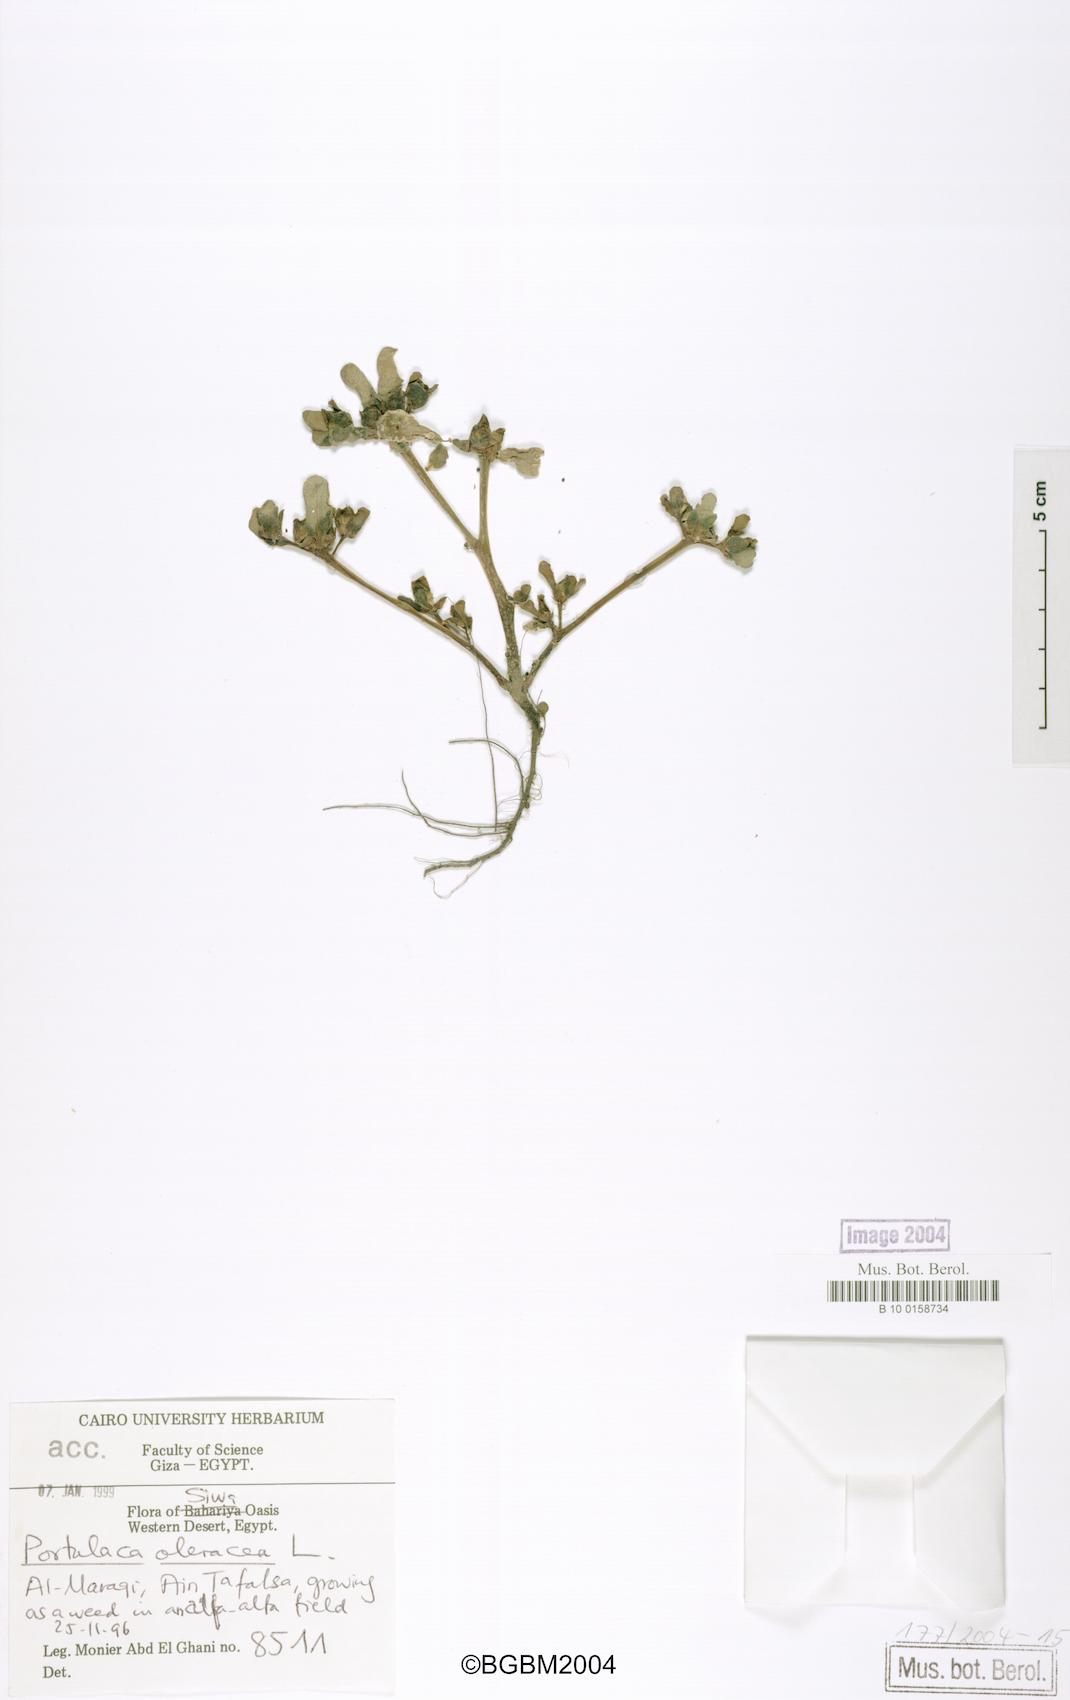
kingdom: Plantae
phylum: Tracheophyta
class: Magnoliopsida
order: Caryophyllales
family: Portulacaceae
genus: Portulaca
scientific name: Portulaca oleracea
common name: Common purslane
